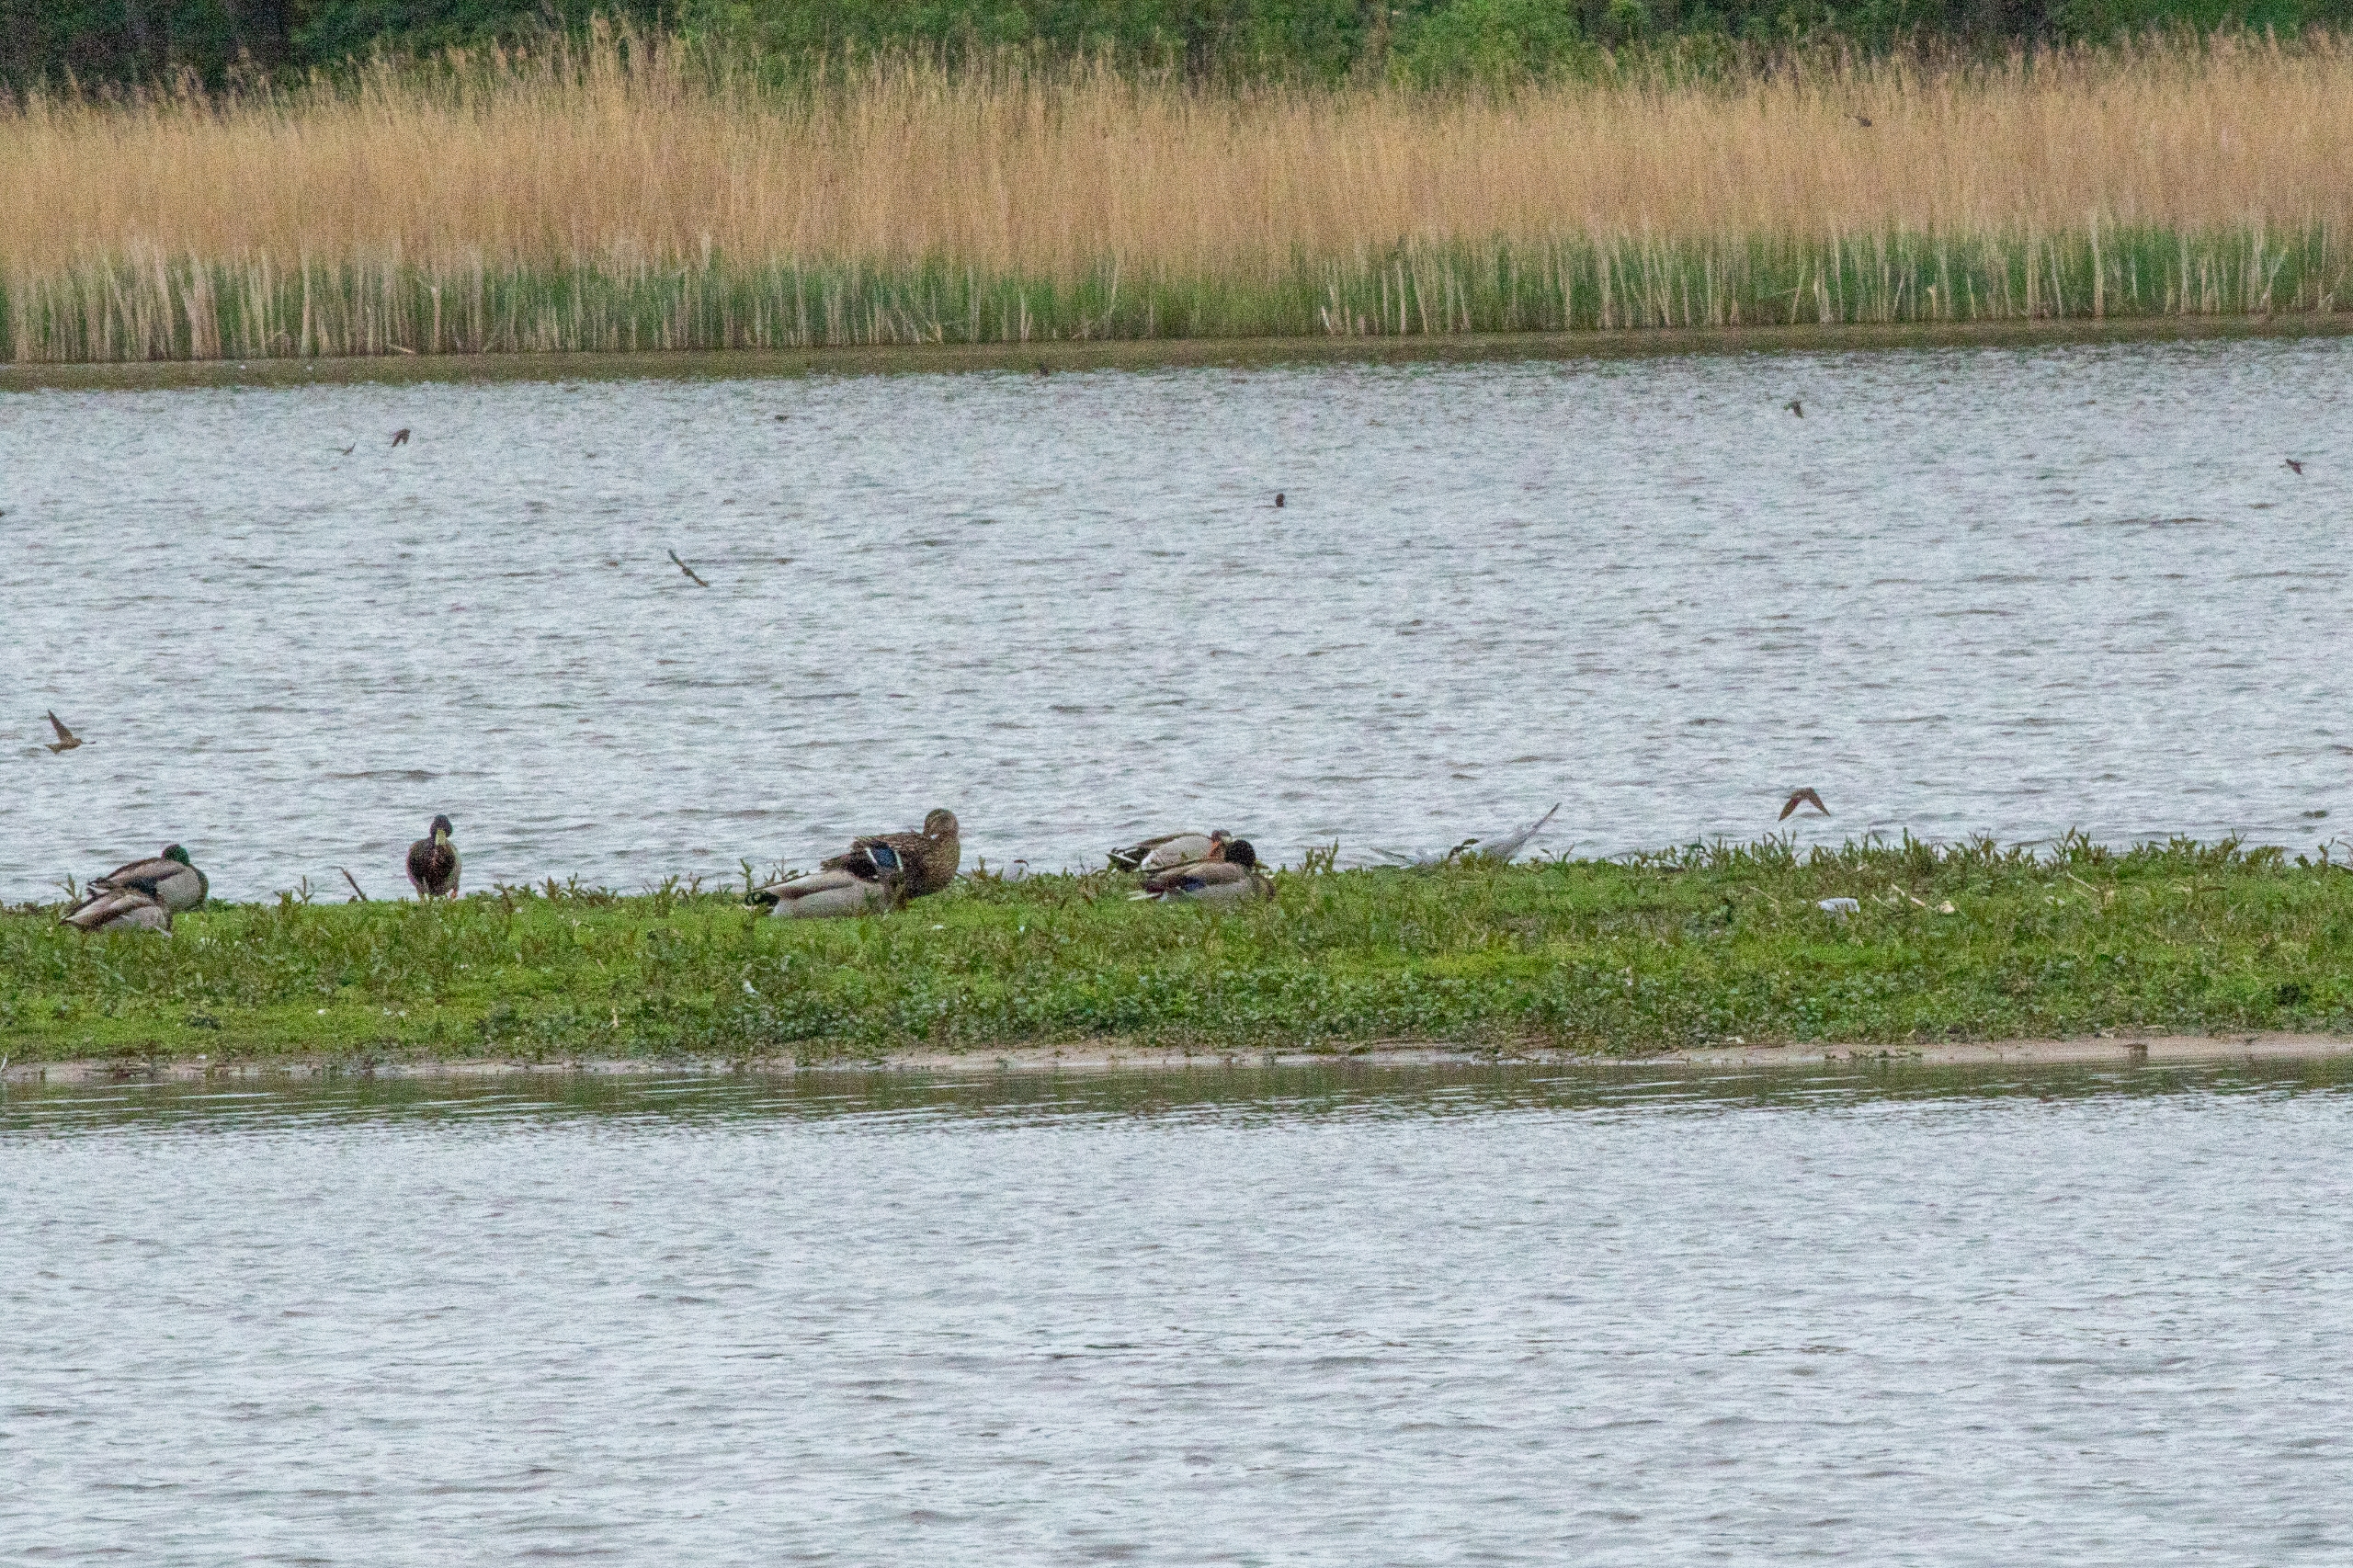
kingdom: Animalia
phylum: Chordata
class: Aves
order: Anseriformes
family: Anatidae
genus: Anas
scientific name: Anas platyrhynchos
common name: Gråand
